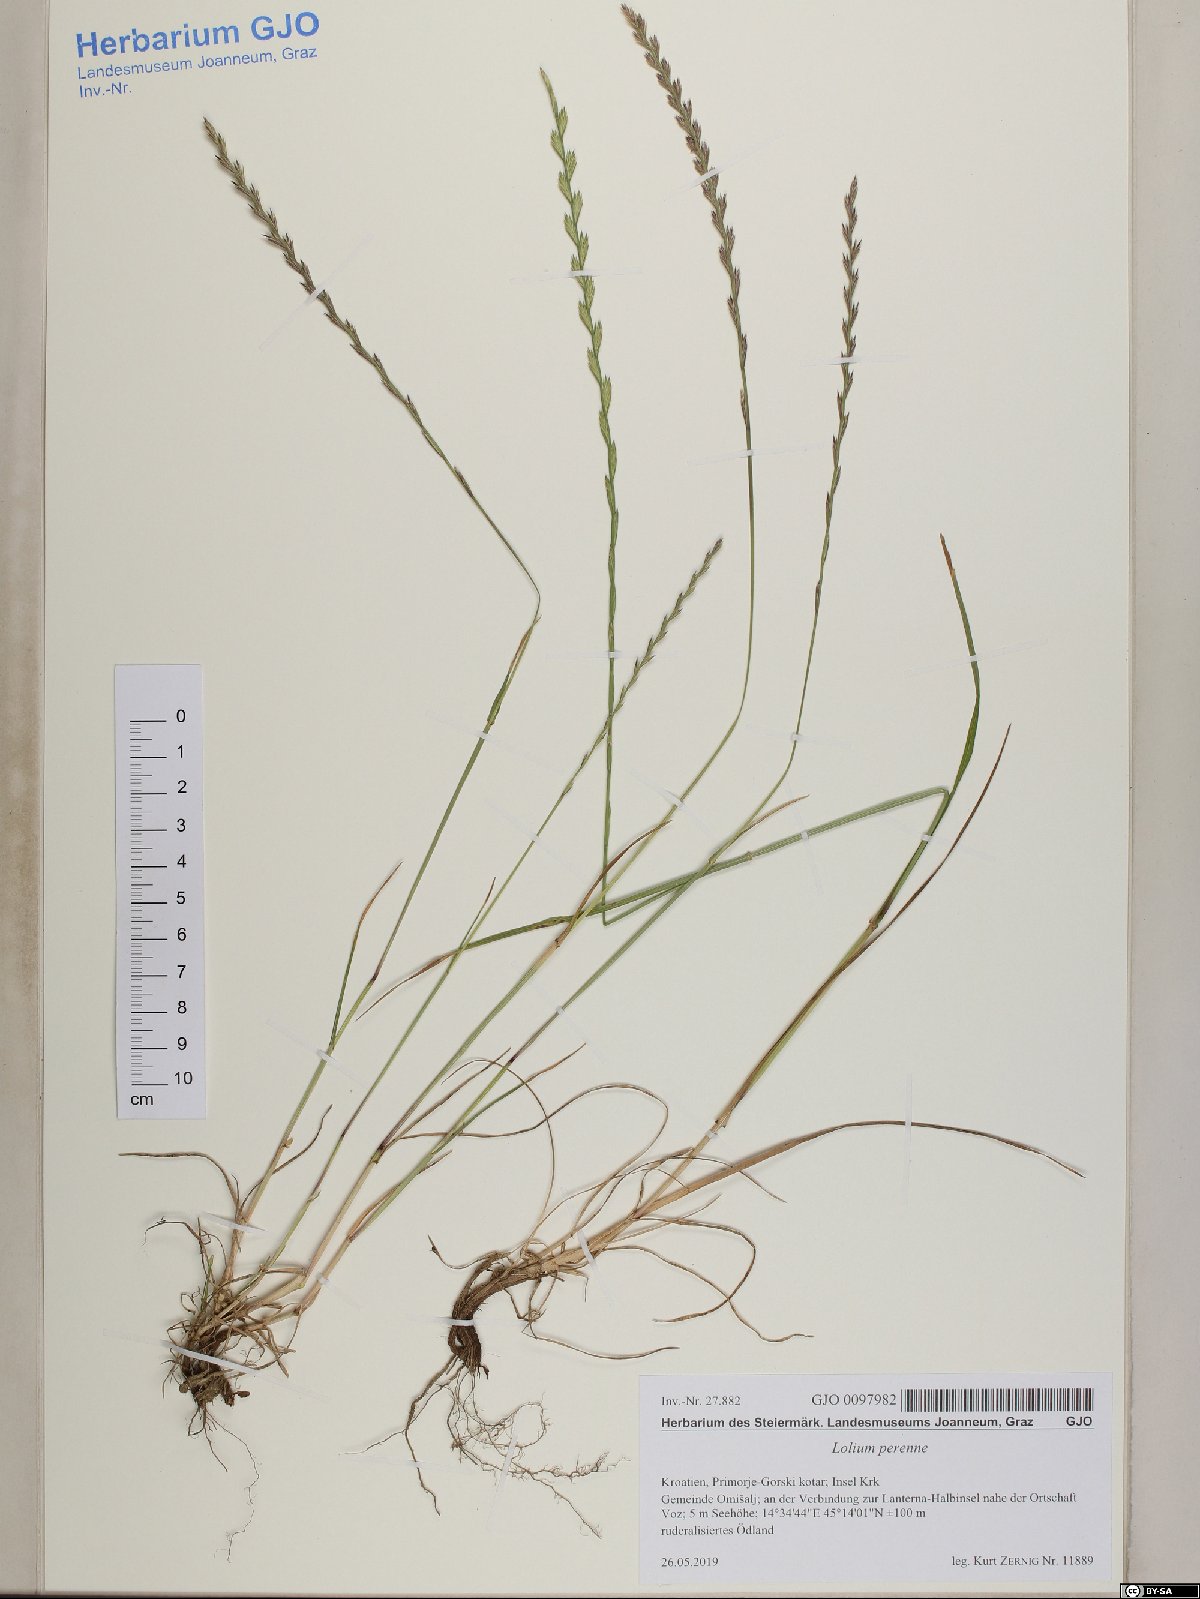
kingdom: Plantae
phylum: Tracheophyta
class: Liliopsida
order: Poales
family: Poaceae
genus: Lolium
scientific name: Lolium perenne
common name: Perennial ryegrass
